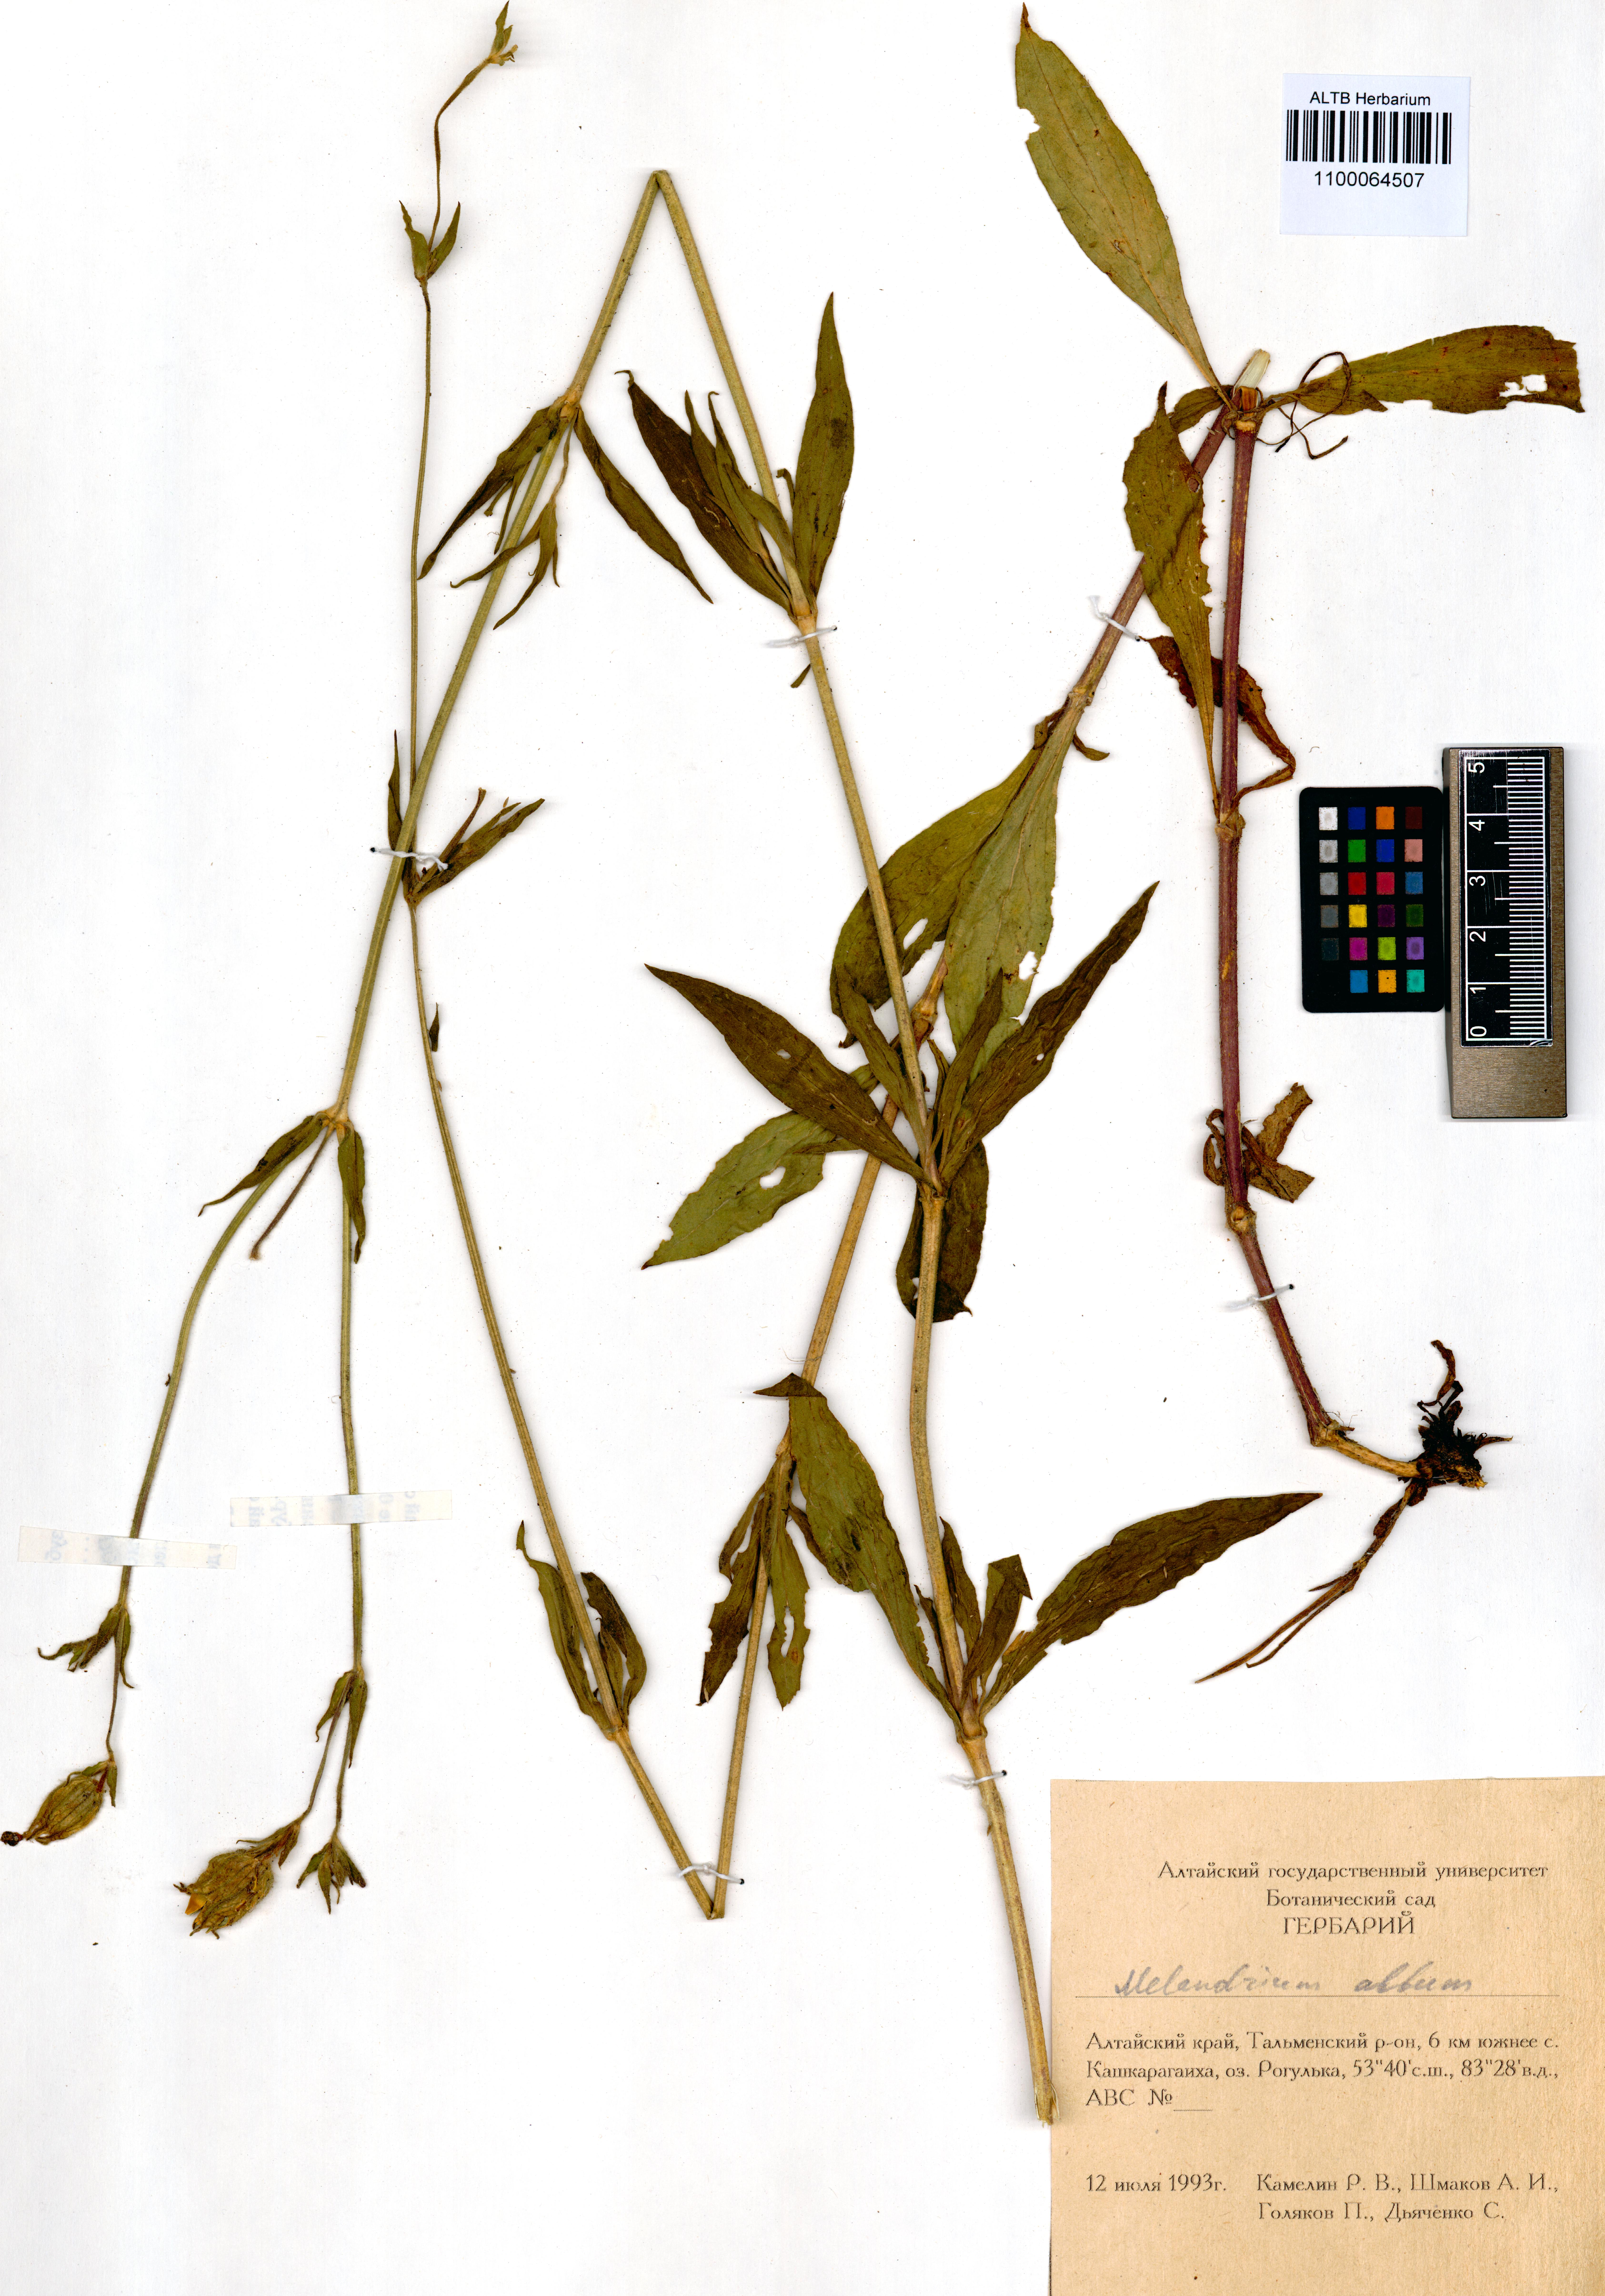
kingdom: Plantae
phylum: Tracheophyta
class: Magnoliopsida
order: Caryophyllales
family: Caryophyllaceae
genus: Silene
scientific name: Silene latifolia
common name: White campion
